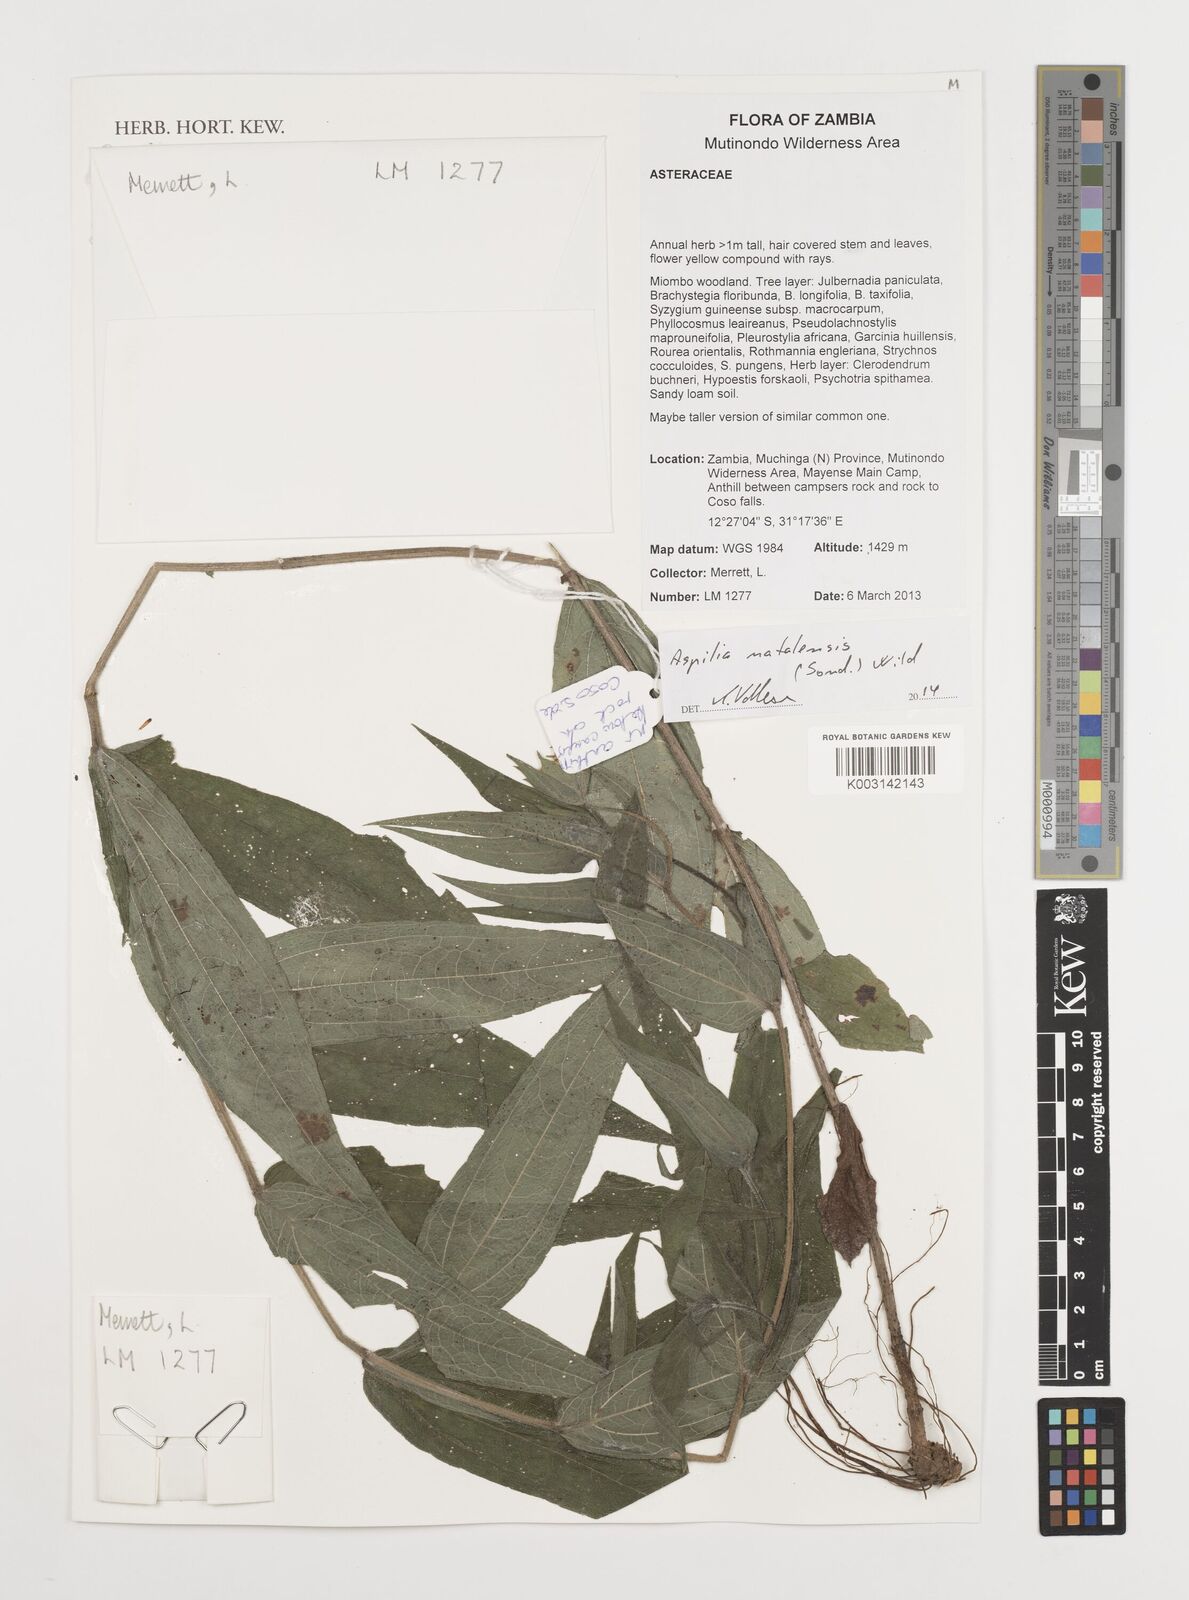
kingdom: Plantae
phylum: Tracheophyta
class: Magnoliopsida
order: Asterales
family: Asteraceae
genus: Aspilia
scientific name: Aspilia natalensis
